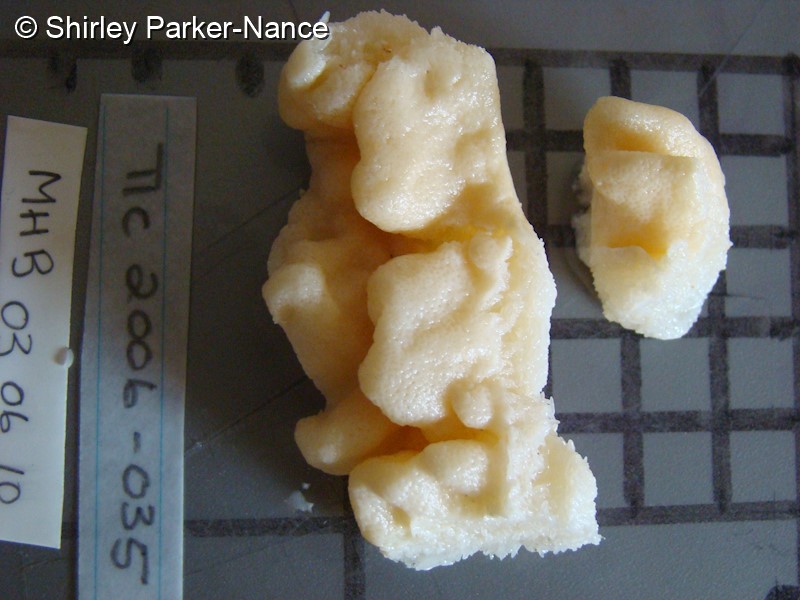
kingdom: Animalia
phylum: Cnidaria
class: Anthozoa
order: Malacalcyonacea
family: Sarcophytidae
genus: Sclerophytum
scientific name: Sclerophytum vanderlandi
